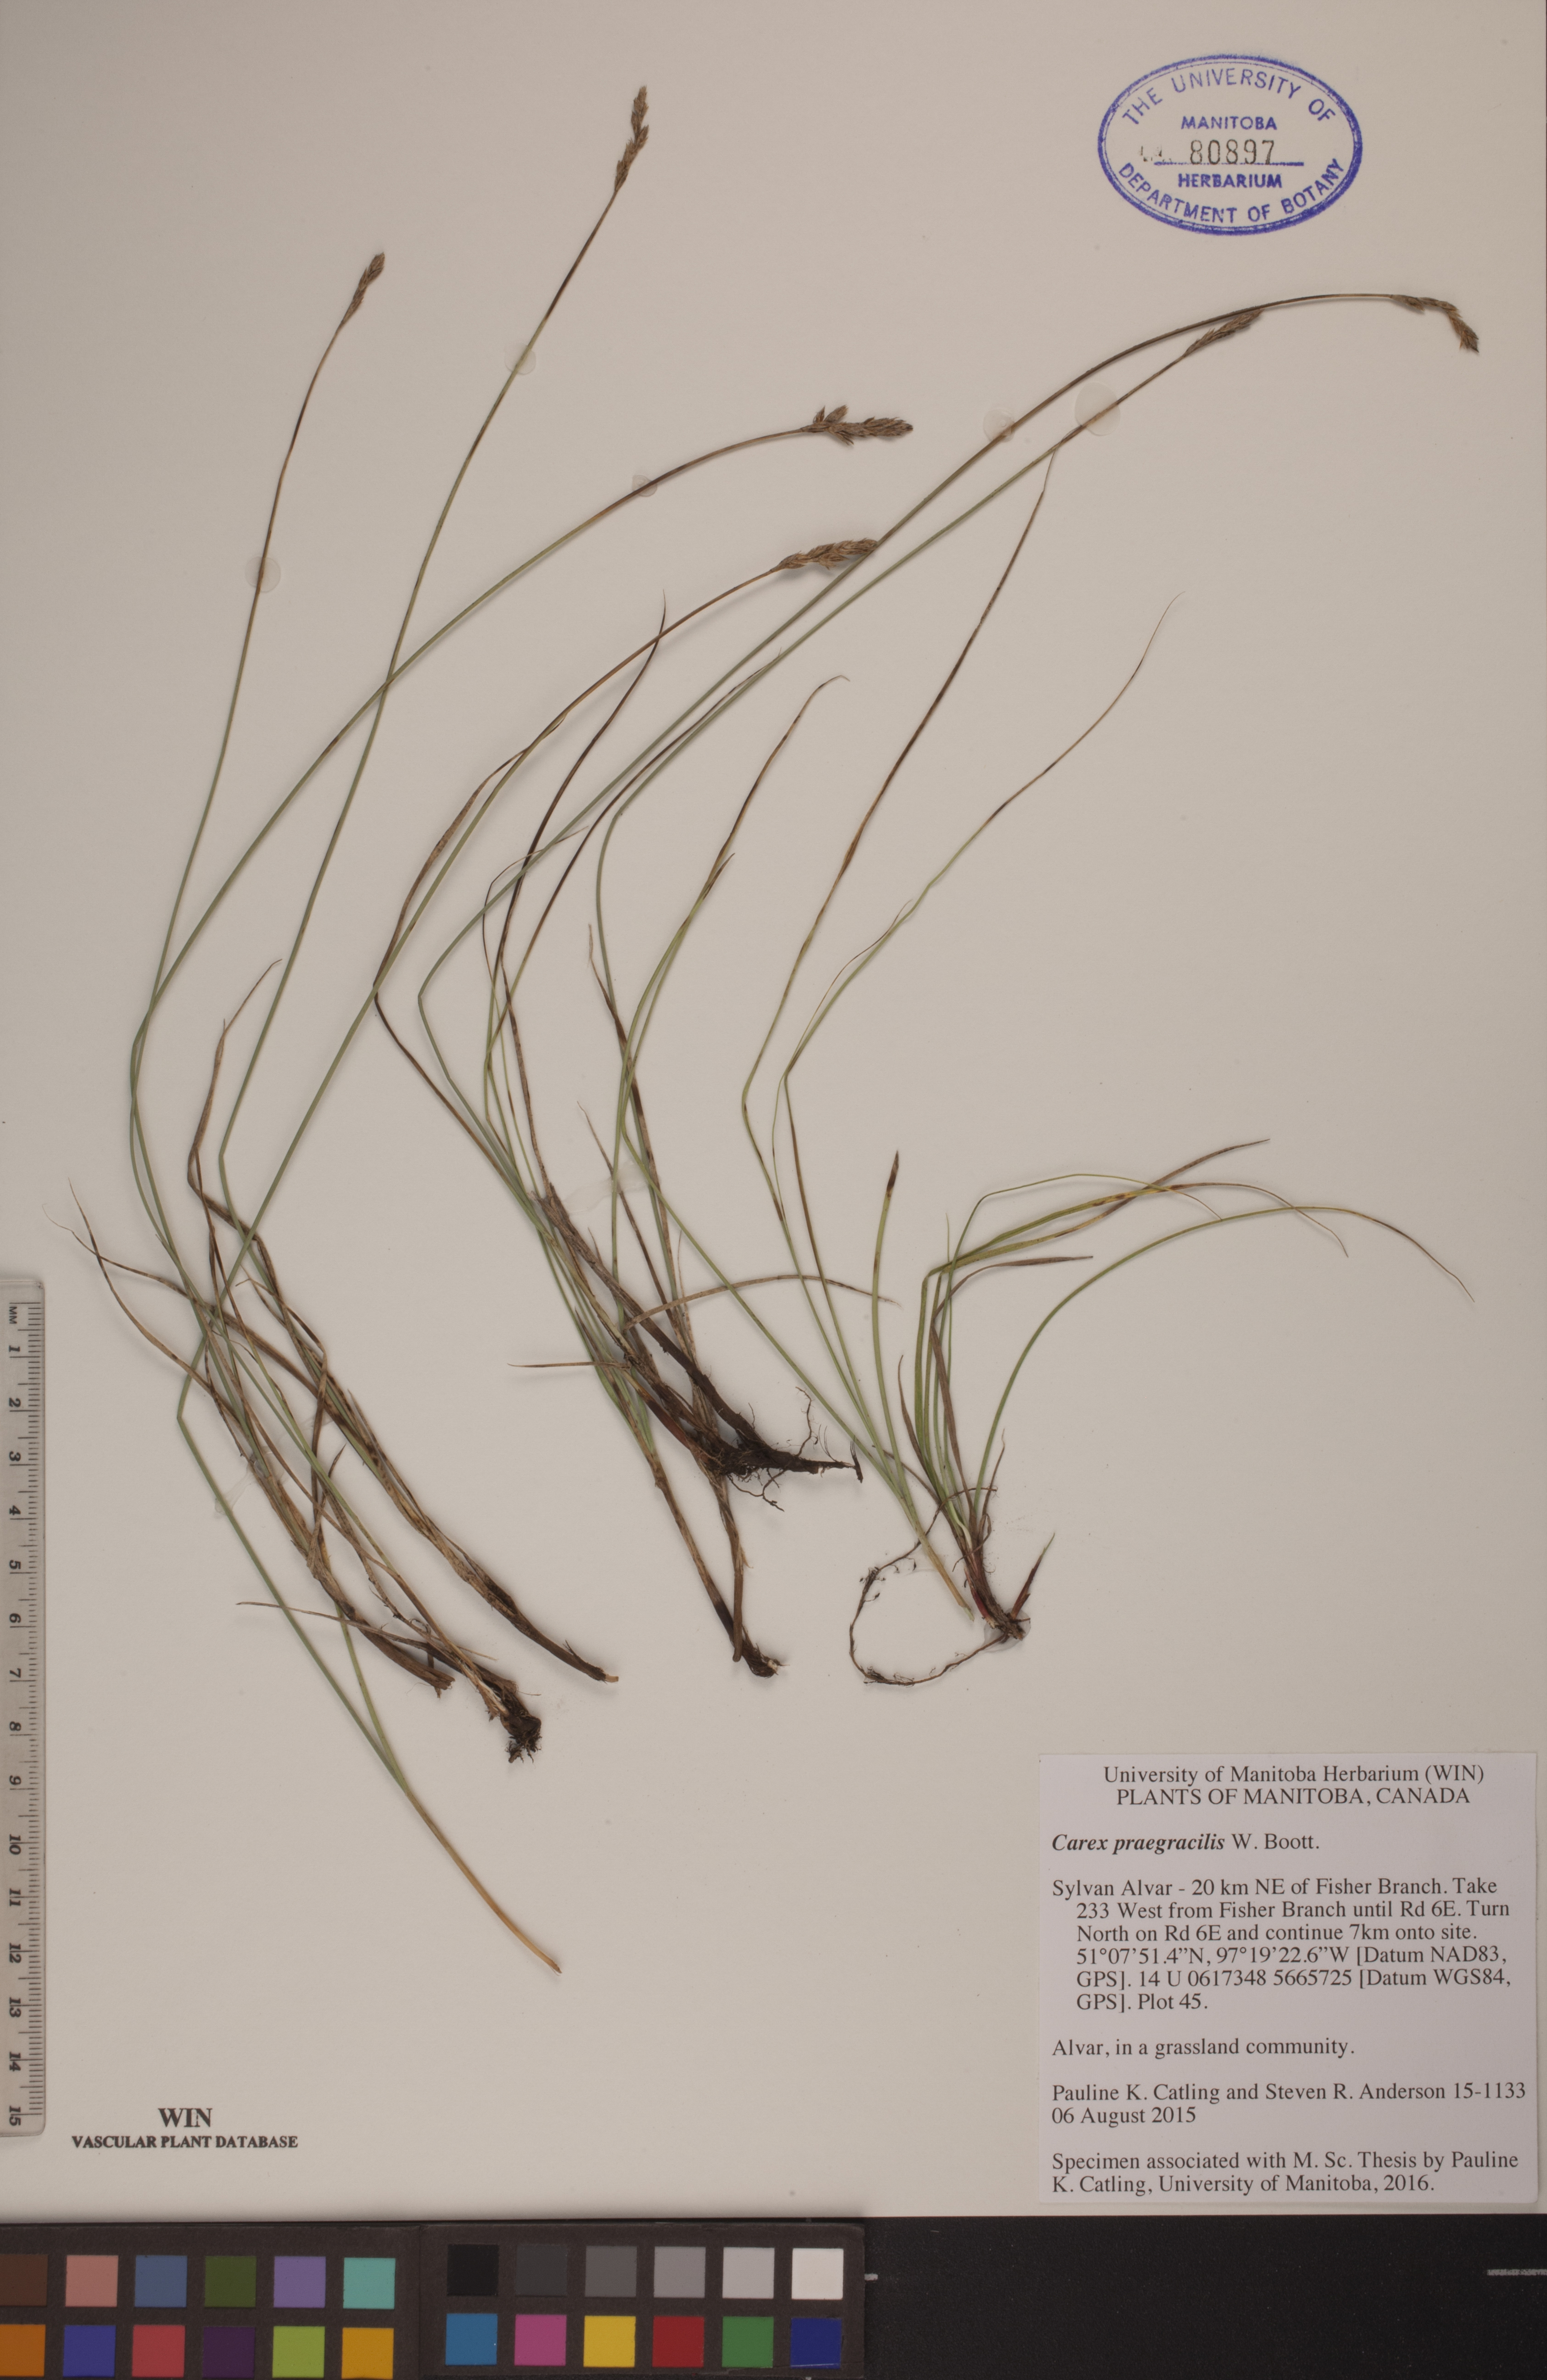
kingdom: Plantae
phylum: Tracheophyta
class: Liliopsida
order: Poales
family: Cyperaceae
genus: Carex
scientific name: Carex praegracilis
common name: Black creeper sedge
